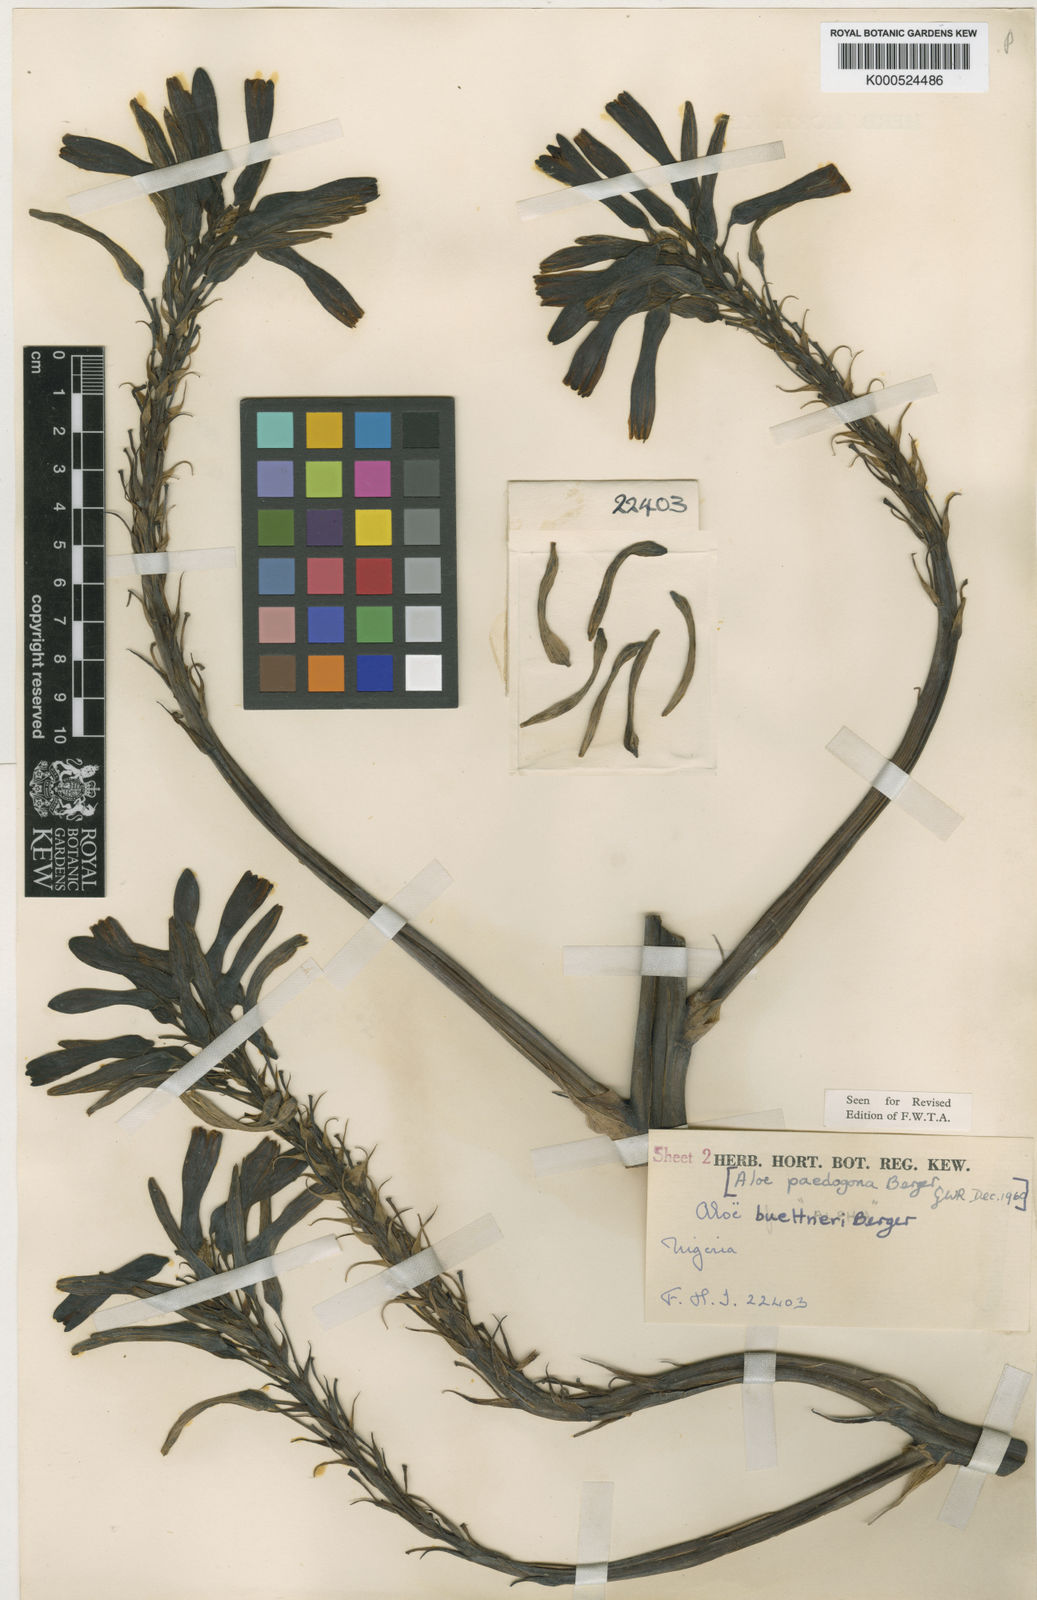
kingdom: Plantae
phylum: Tracheophyta
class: Liliopsida
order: Asparagales
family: Asphodelaceae
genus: Aloe
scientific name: Aloe buettneri
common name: West african aloe
